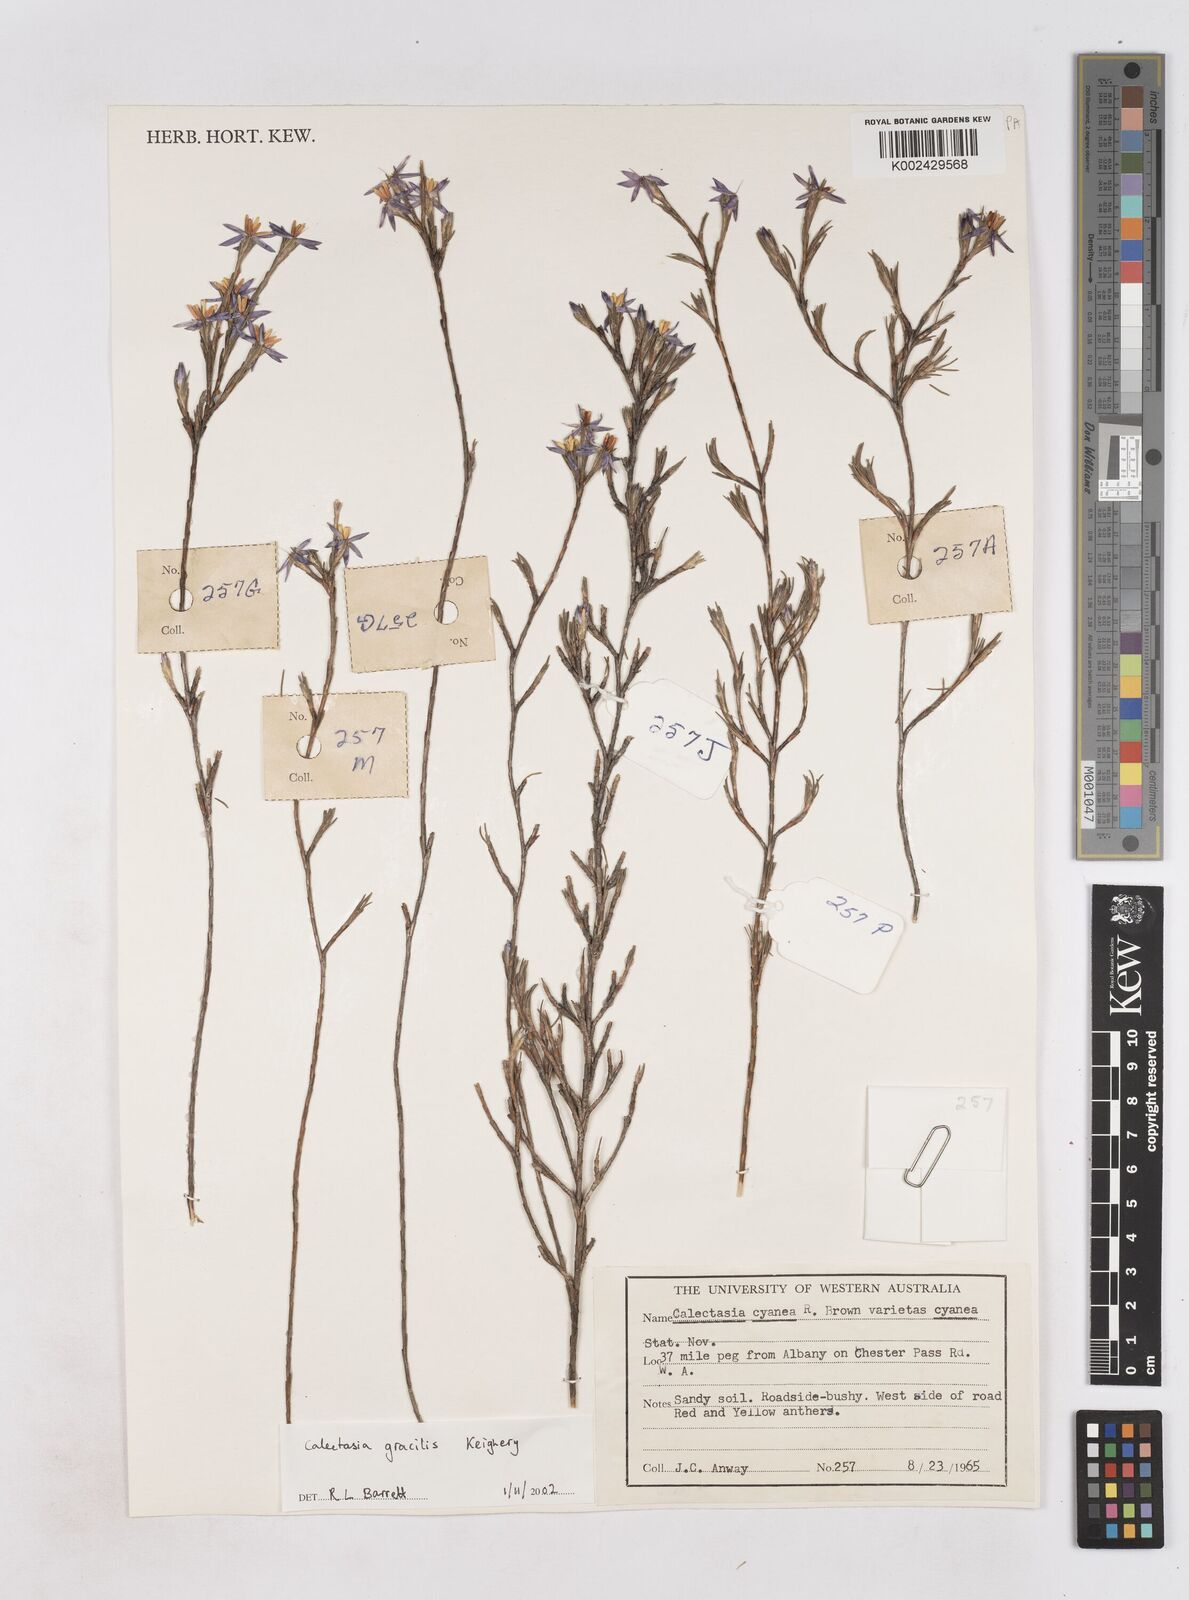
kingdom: Plantae
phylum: Tracheophyta
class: Liliopsida
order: Arecales
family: Dasypogonaceae
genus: Calectasia
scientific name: Calectasia gracilis
